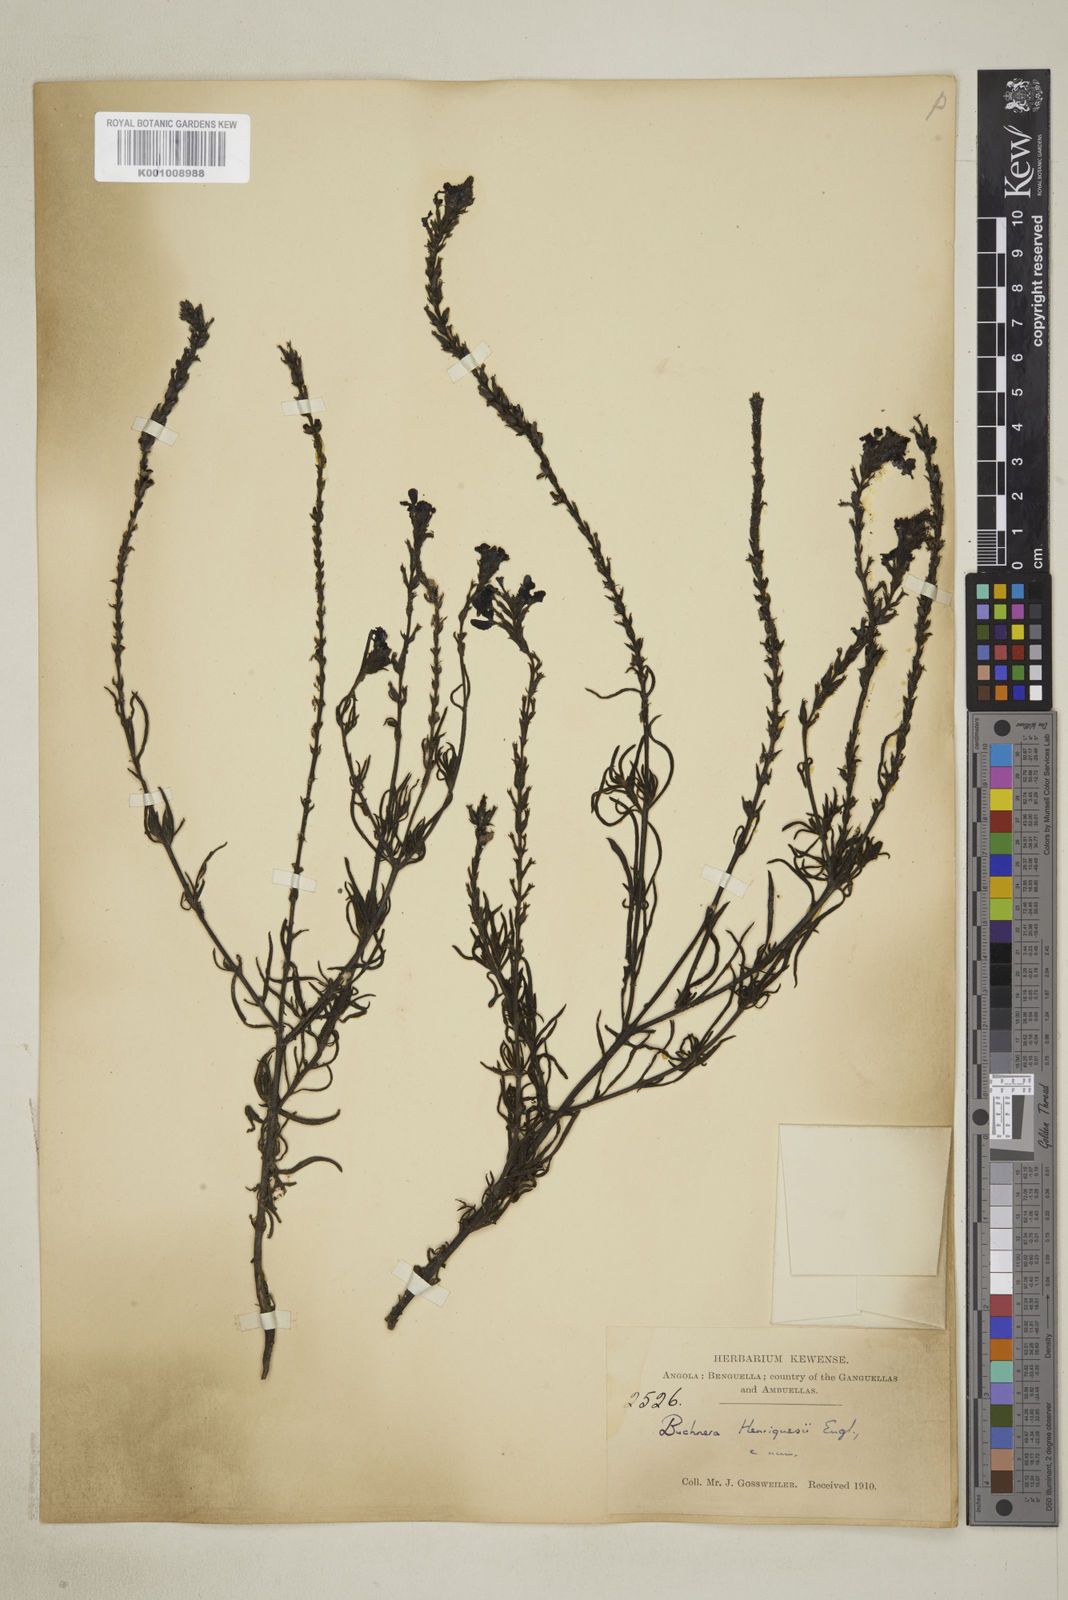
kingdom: Plantae
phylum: Tracheophyta
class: Magnoliopsida
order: Lamiales
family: Orobanchaceae
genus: Buchnera
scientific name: Buchnera henriquesii
